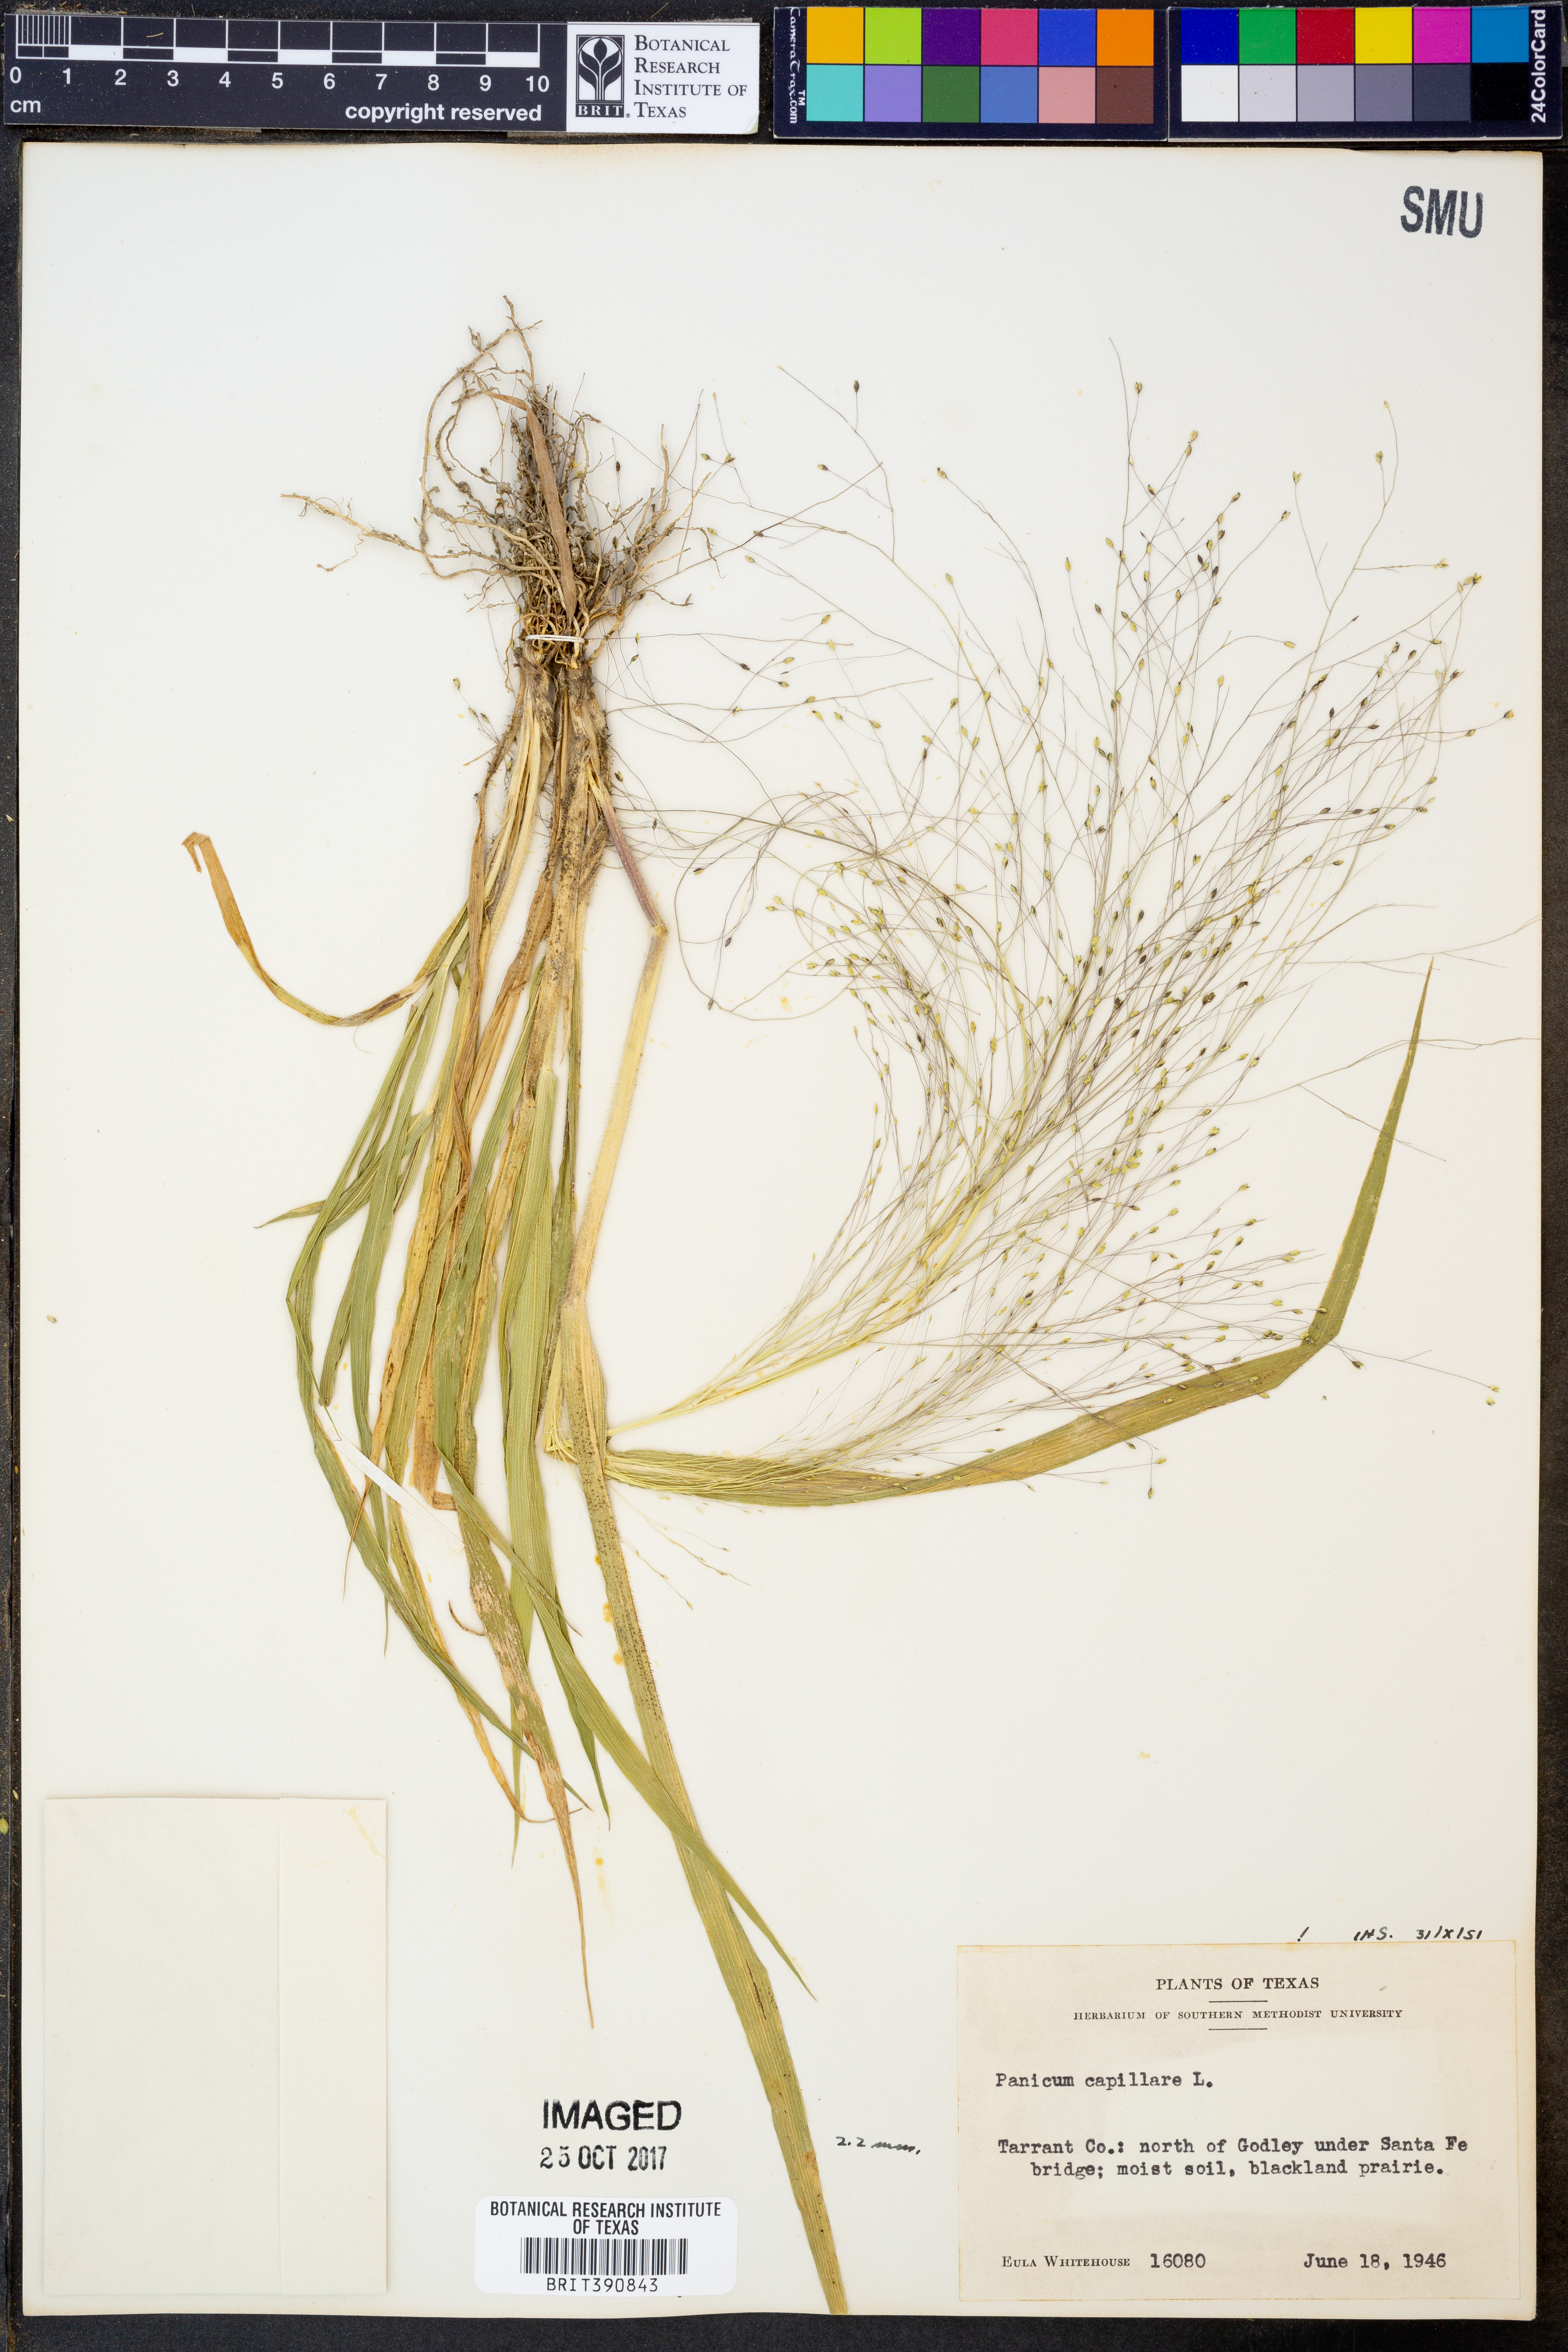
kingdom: Plantae
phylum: Tracheophyta
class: Liliopsida
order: Poales
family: Poaceae
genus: Panicum
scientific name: Panicum capillare
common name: Witch-grass
